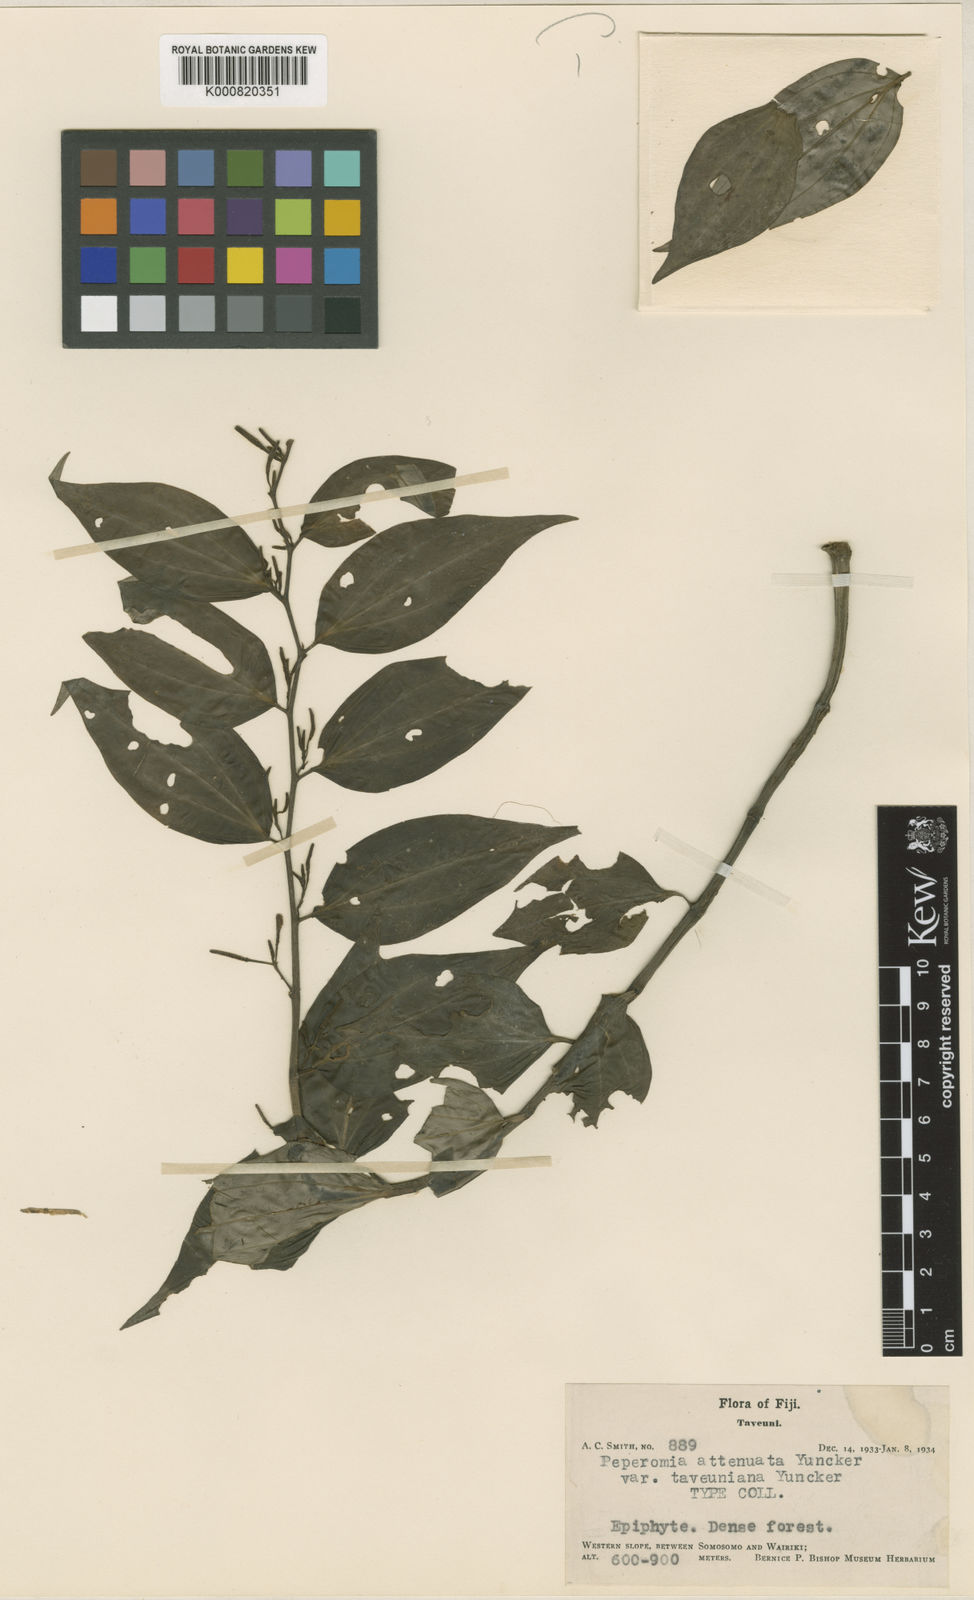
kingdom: Plantae
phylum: Tracheophyta
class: Magnoliopsida
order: Piperales
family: Piperaceae
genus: Peperomia
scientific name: Peperomia attenuata
